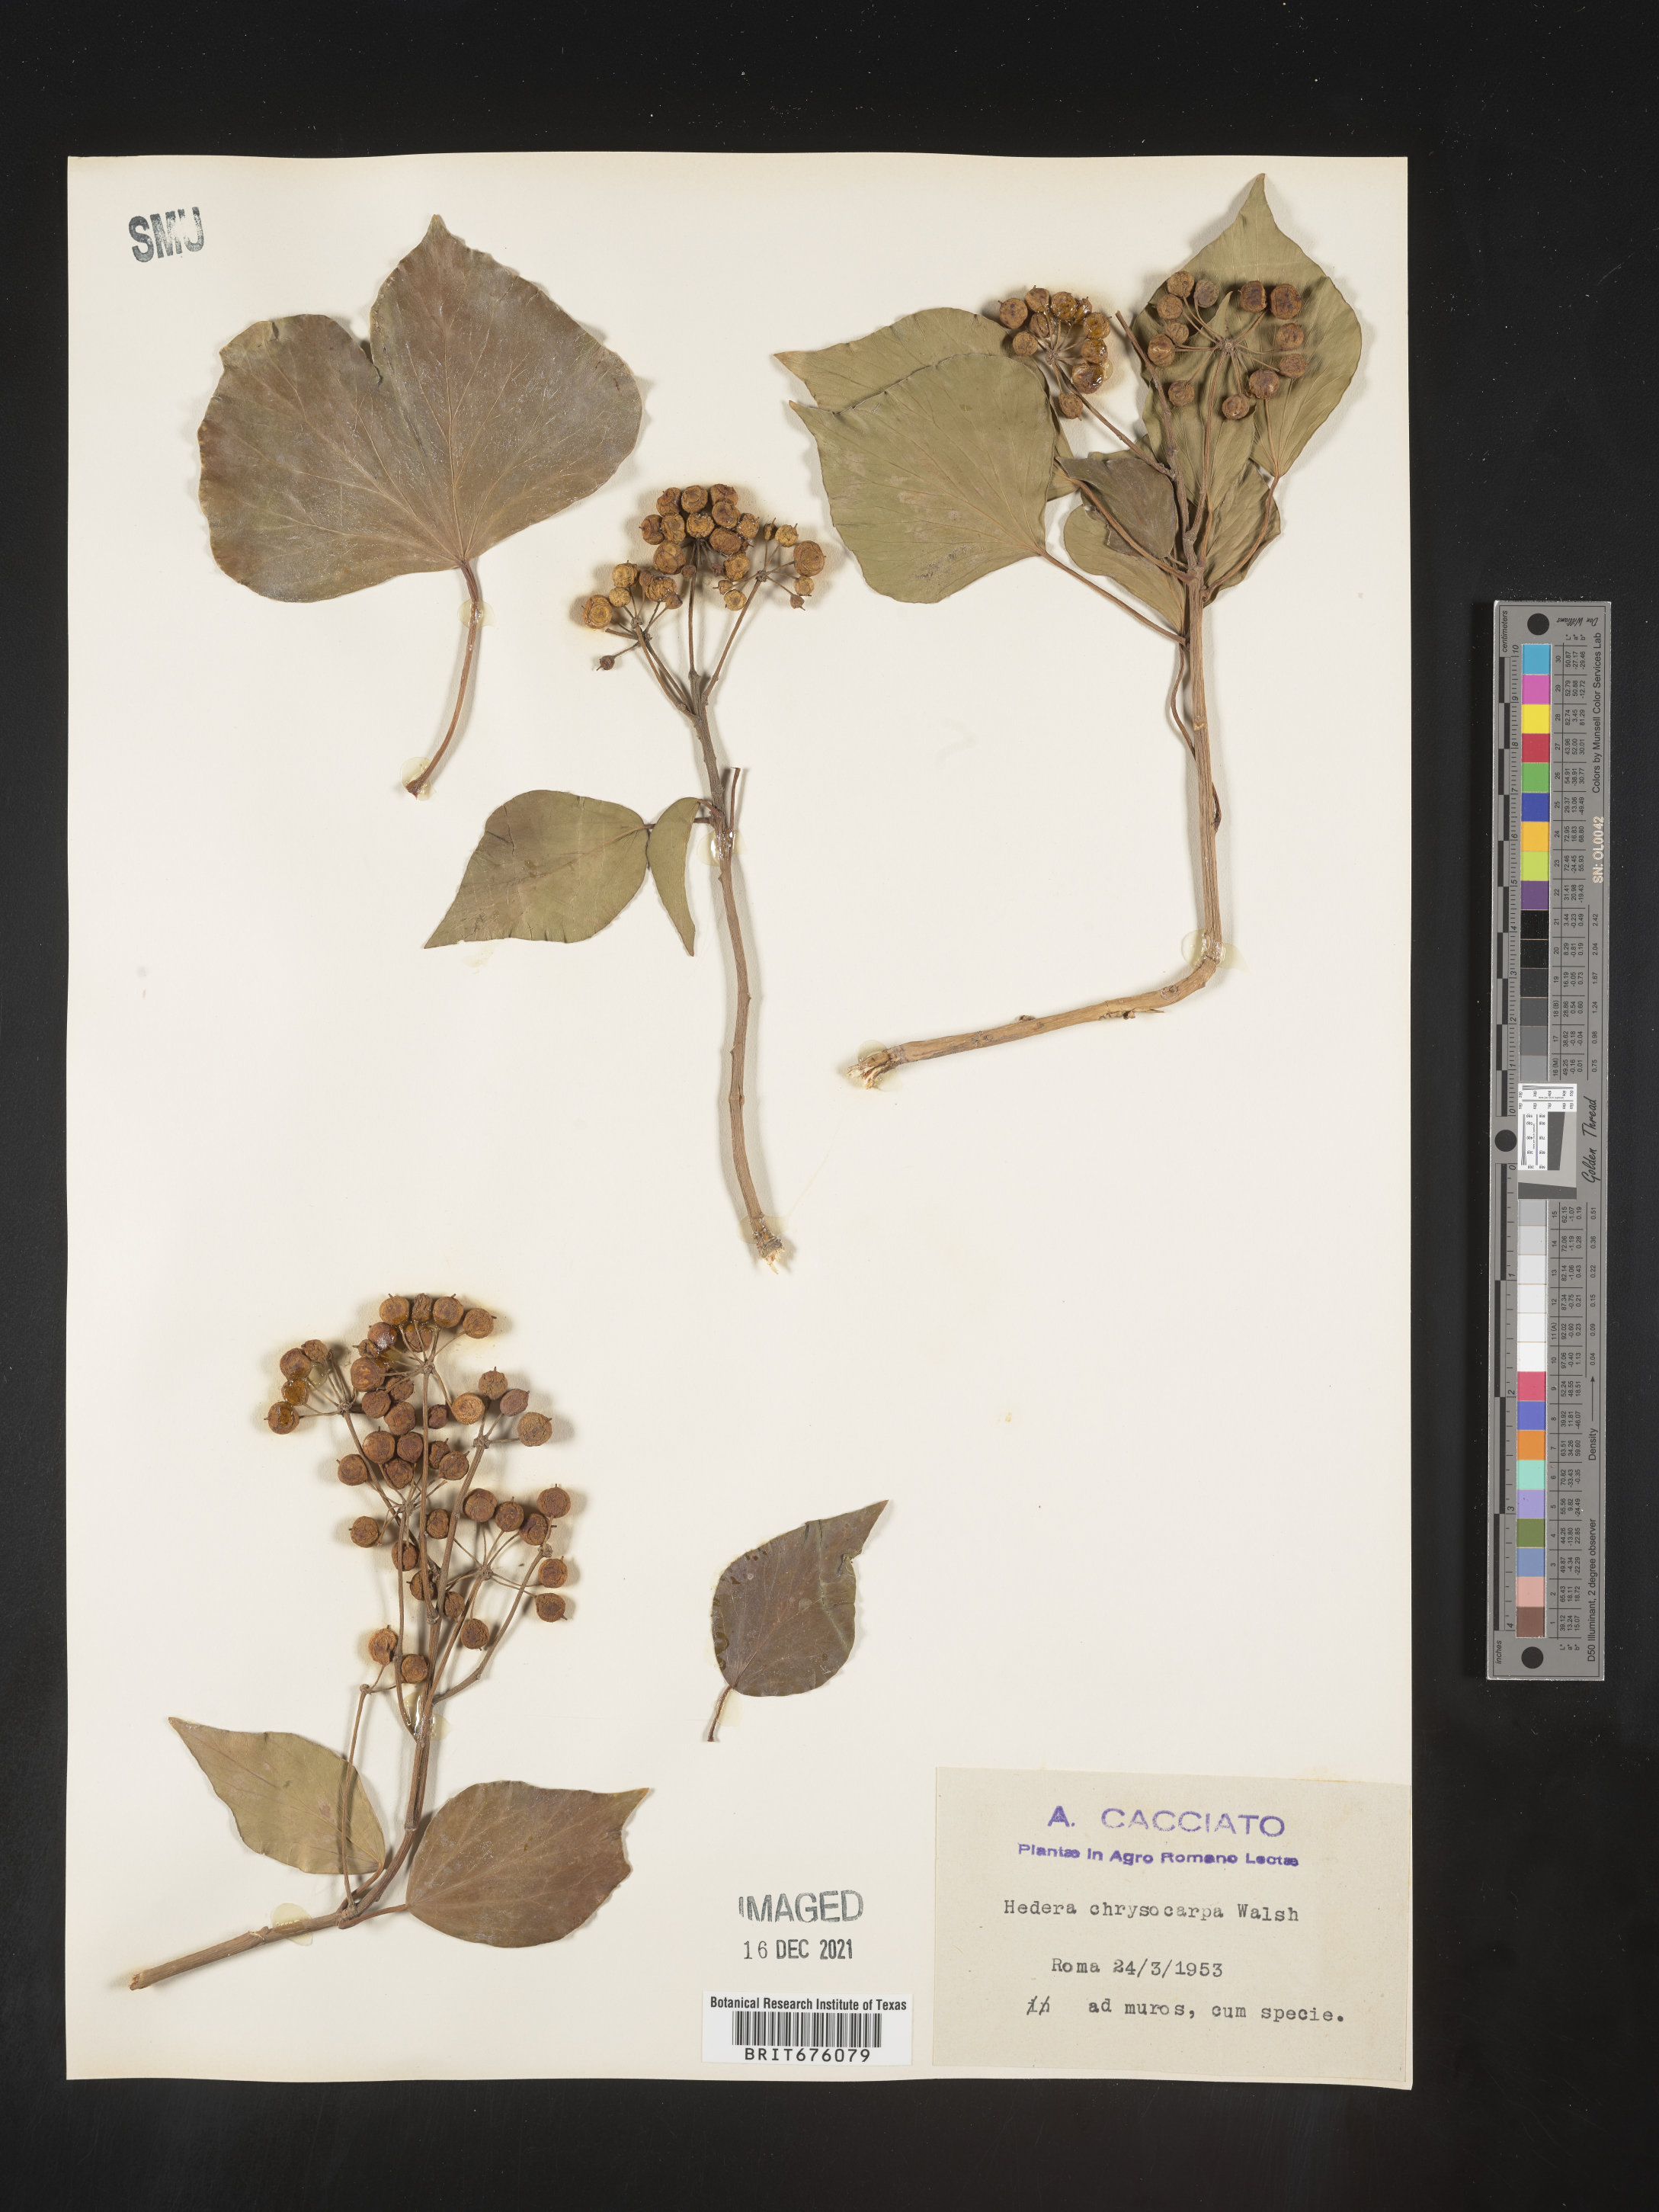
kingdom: Plantae
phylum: Tracheophyta
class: Magnoliopsida
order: Apiales
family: Araliaceae
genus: Hedera
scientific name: Hedera
